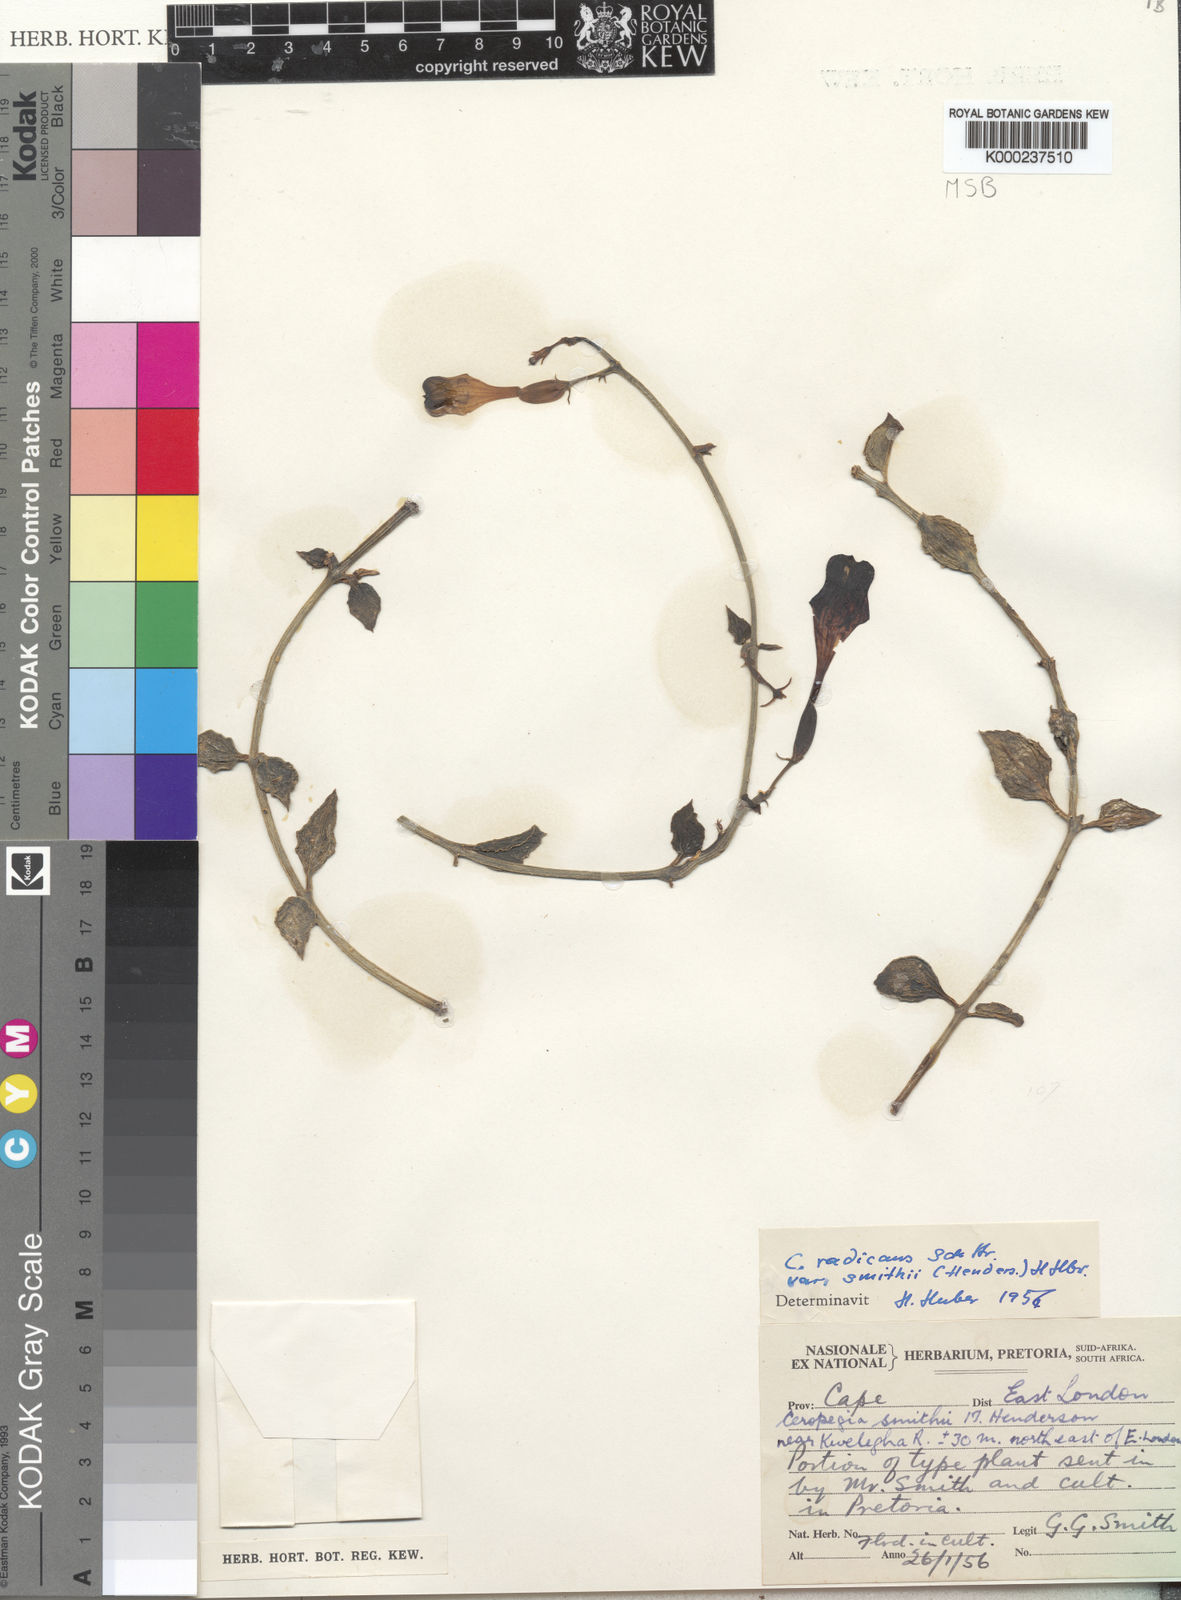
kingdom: Plantae
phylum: Tracheophyta
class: Magnoliopsida
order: Gentianales
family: Apocynaceae
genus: Ceropegia
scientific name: Ceropegia radicans
